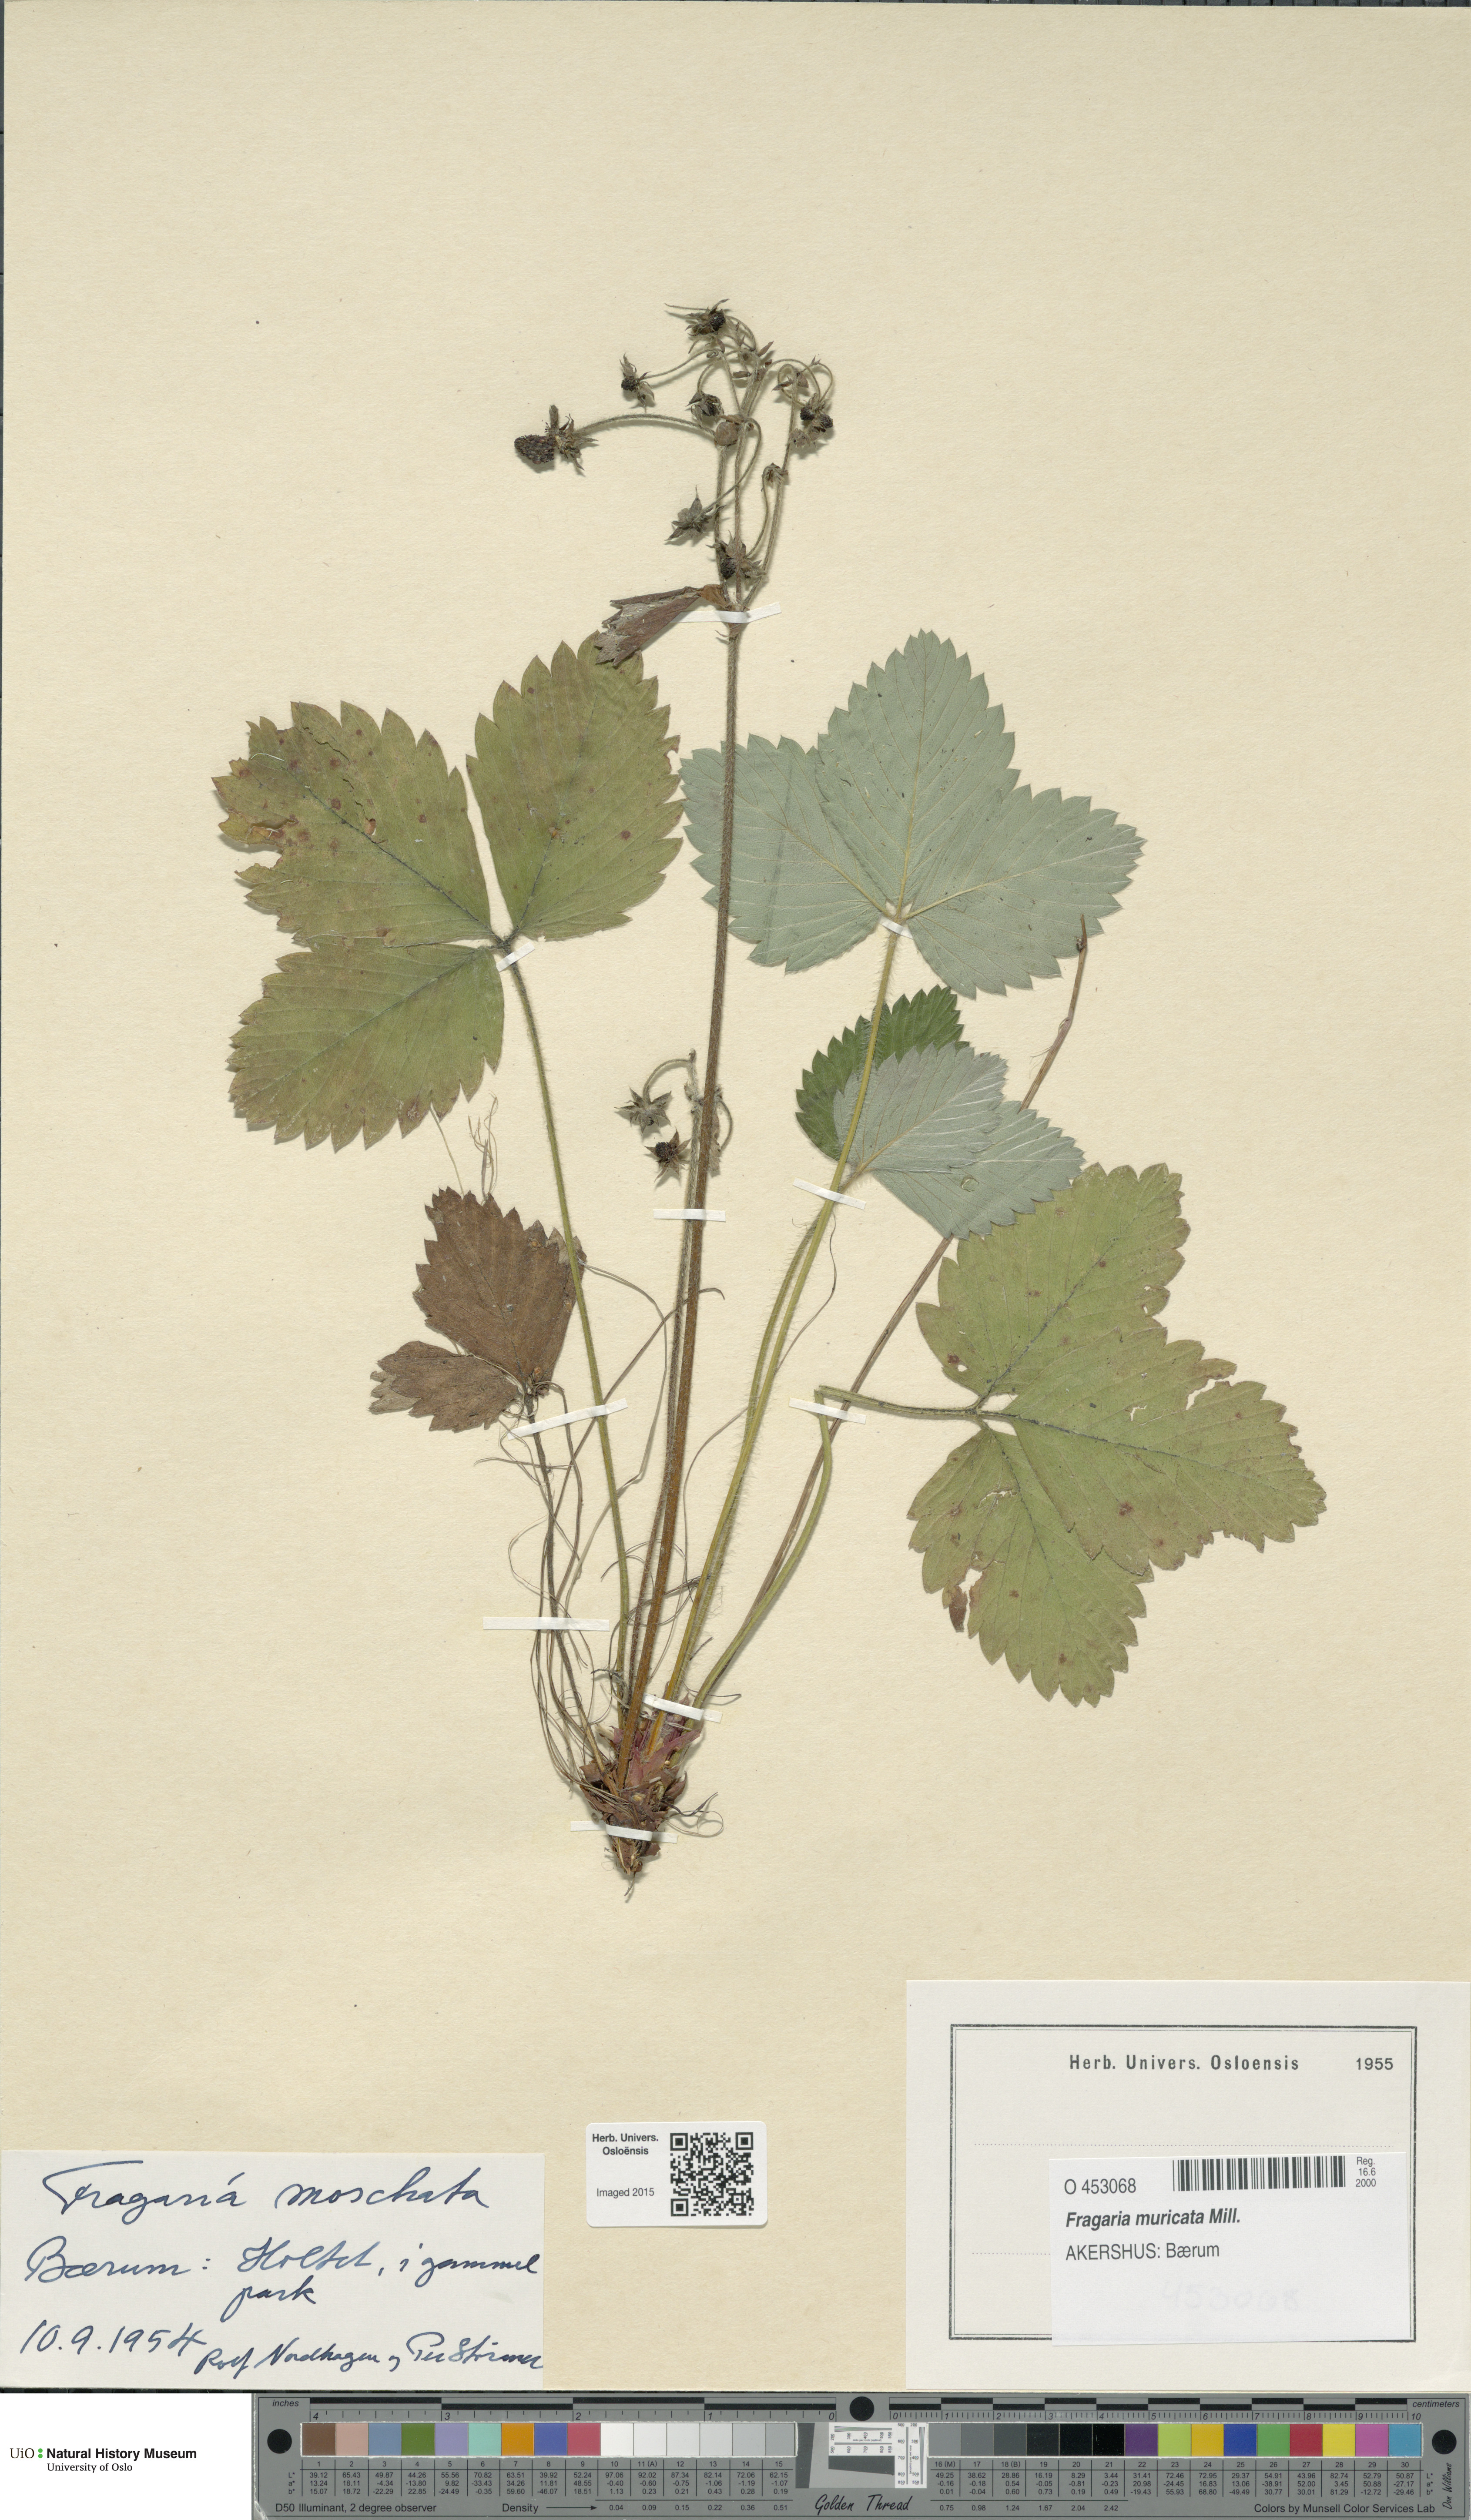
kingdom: Plantae
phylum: Tracheophyta
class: Magnoliopsida
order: Rosales
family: Rosaceae
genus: Fragaria
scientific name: Fragaria moschata
